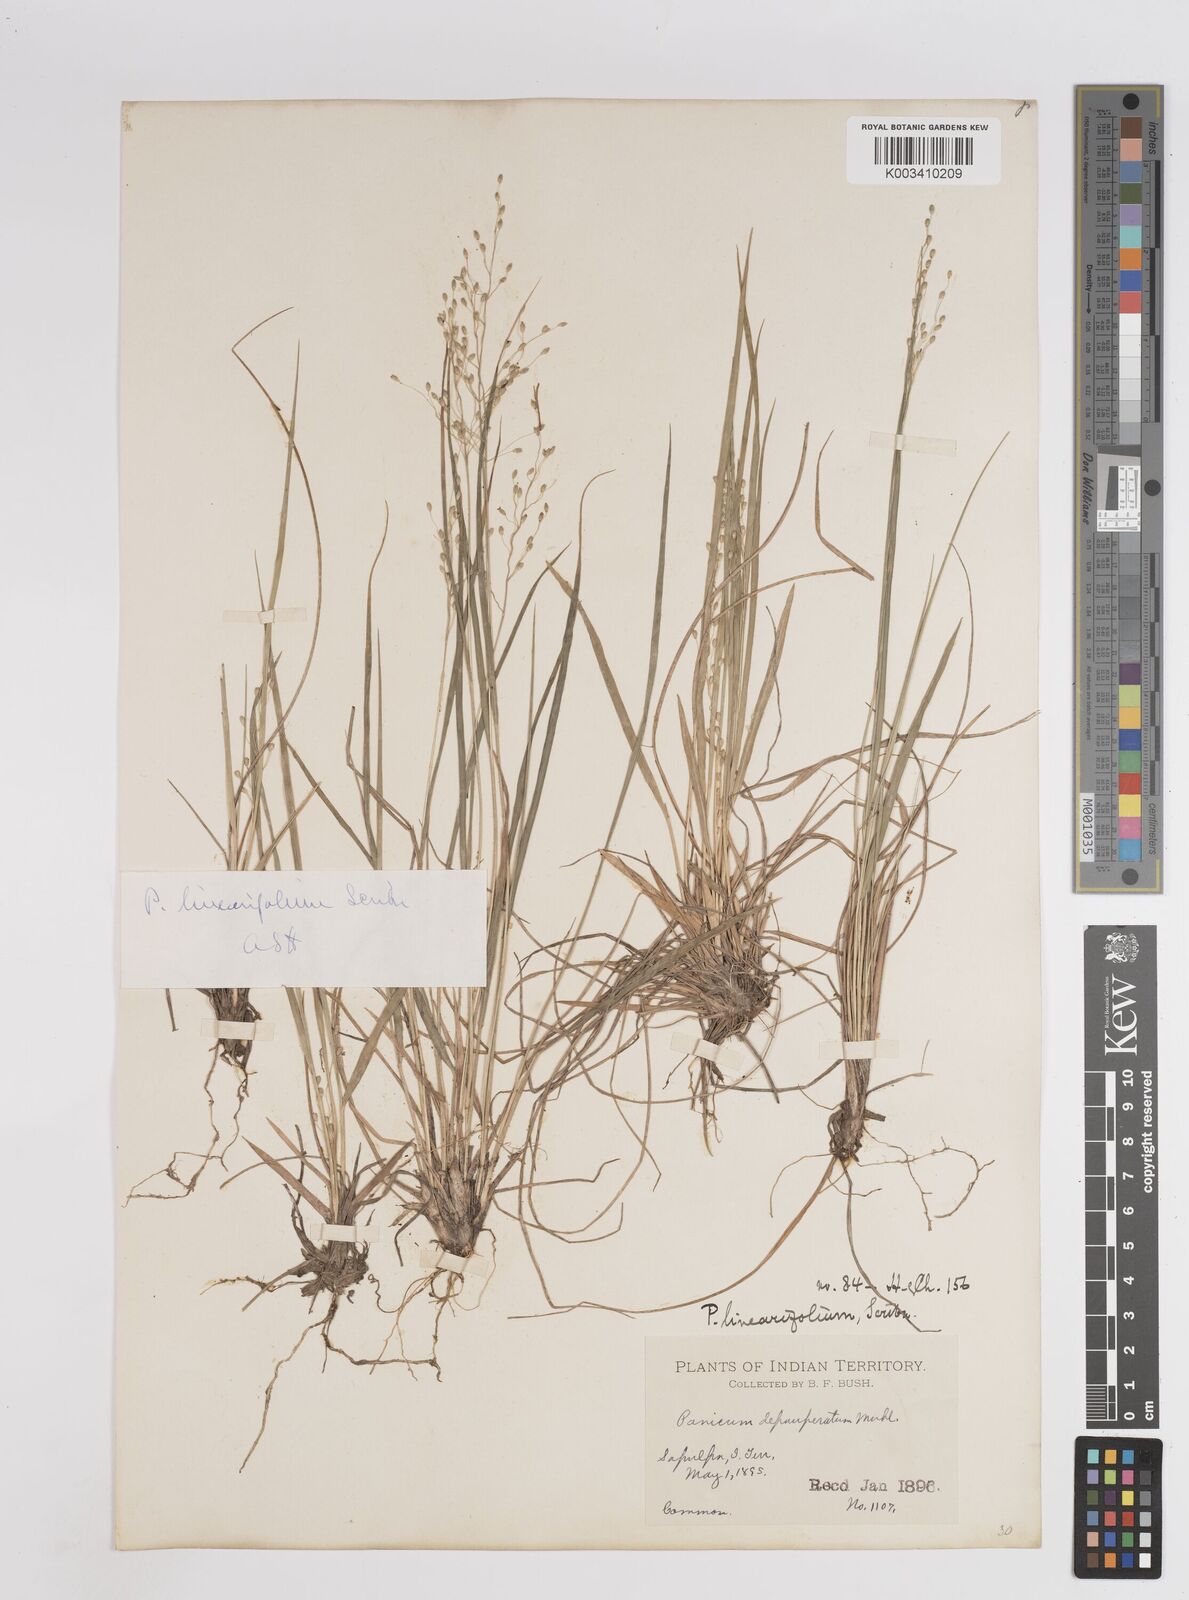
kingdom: Plantae
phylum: Tracheophyta
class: Liliopsida
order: Poales
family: Poaceae
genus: Dichanthelium
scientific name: Dichanthelium linearifolium
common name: Linear-leaved panicgrass
